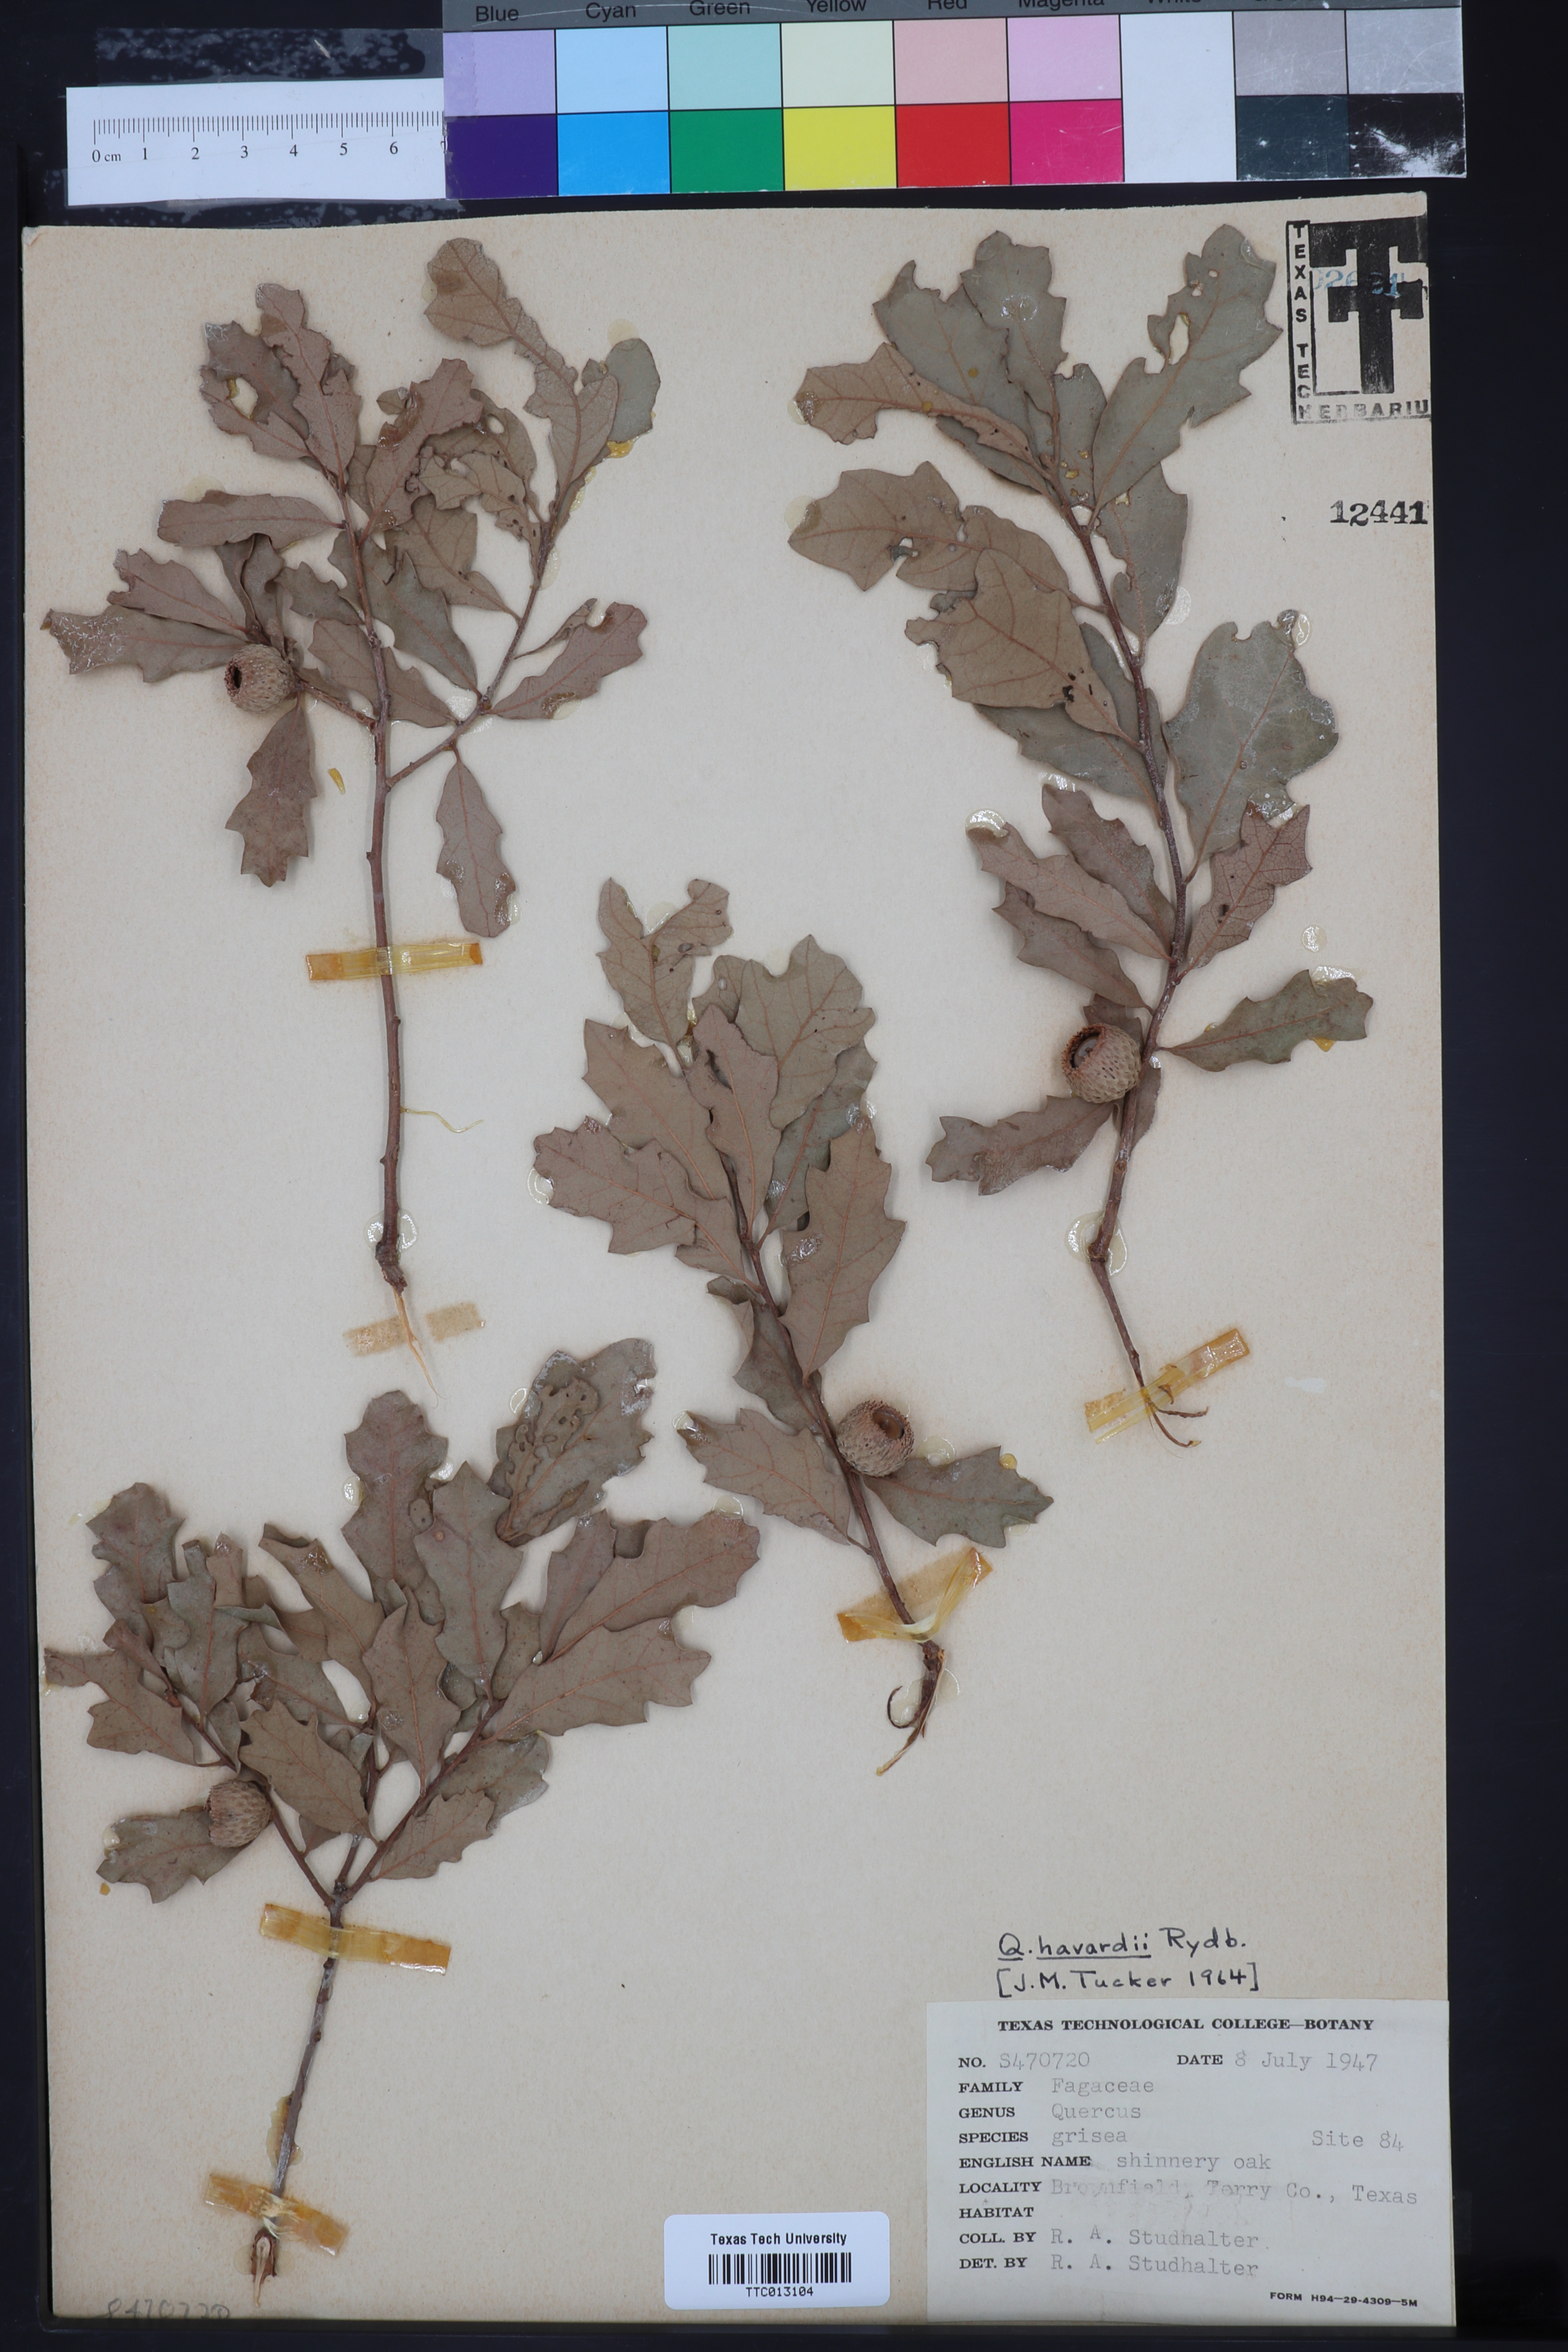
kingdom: Plantae
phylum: Tracheophyta
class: Magnoliopsida
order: Fagales
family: Fagaceae
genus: Quercus
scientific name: Quercus havardii
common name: Shinnery oak
